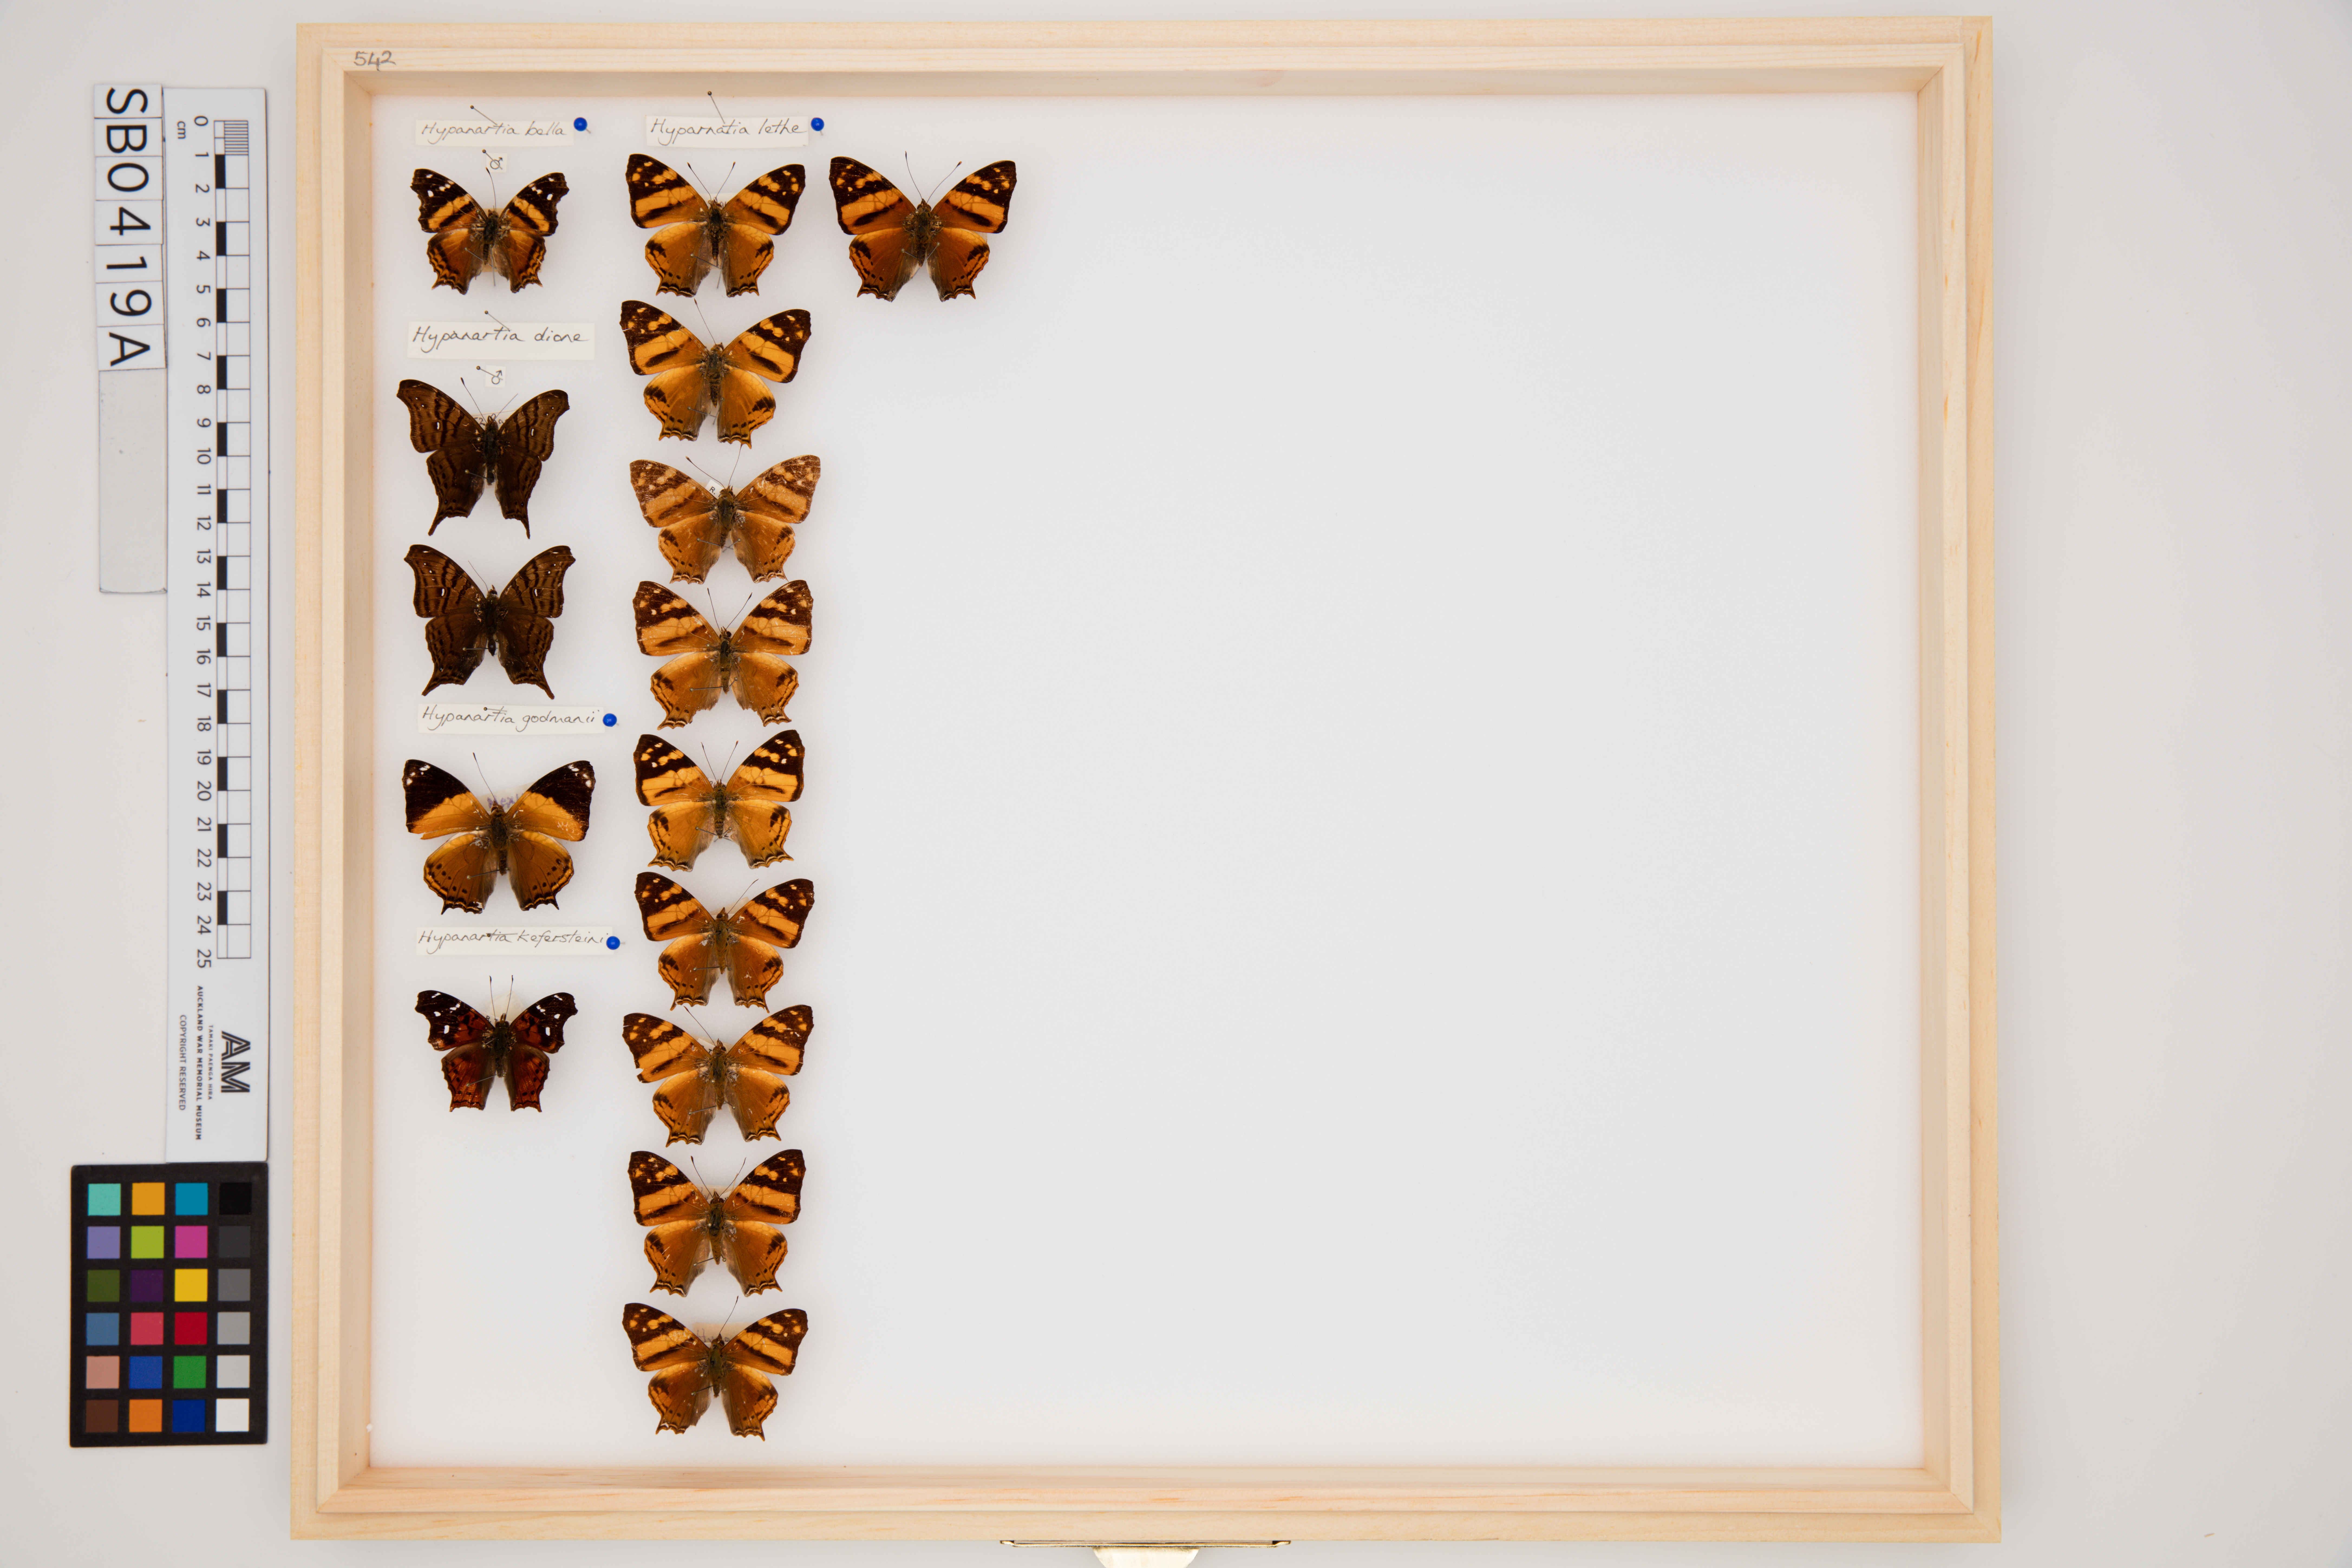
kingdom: Animalia
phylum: Arthropoda
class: Insecta
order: Lepidoptera
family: Nymphalidae
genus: Hypanartia
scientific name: Hypanartia lethe
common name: Orange mapwing
